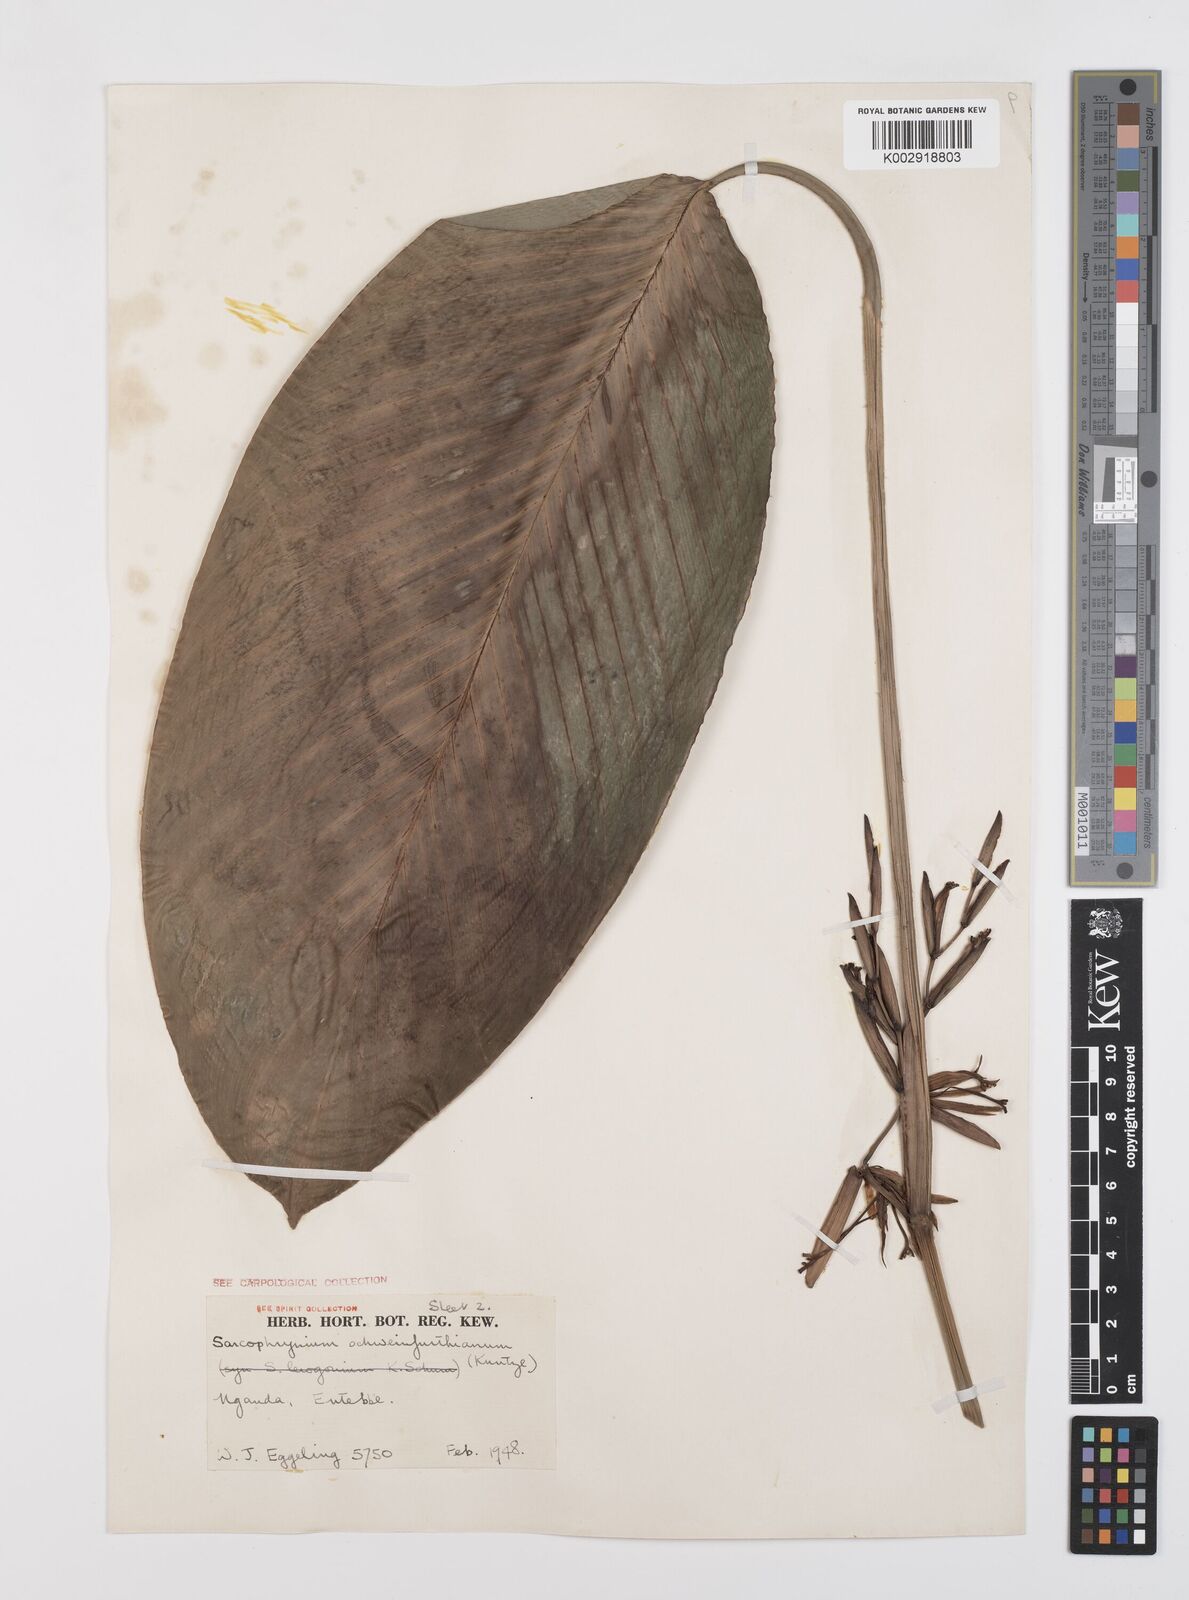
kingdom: Plantae
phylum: Tracheophyta
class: Liliopsida
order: Zingiberales
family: Marantaceae
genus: Sarcophrynium
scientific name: Sarcophrynium schweinfurthianum
